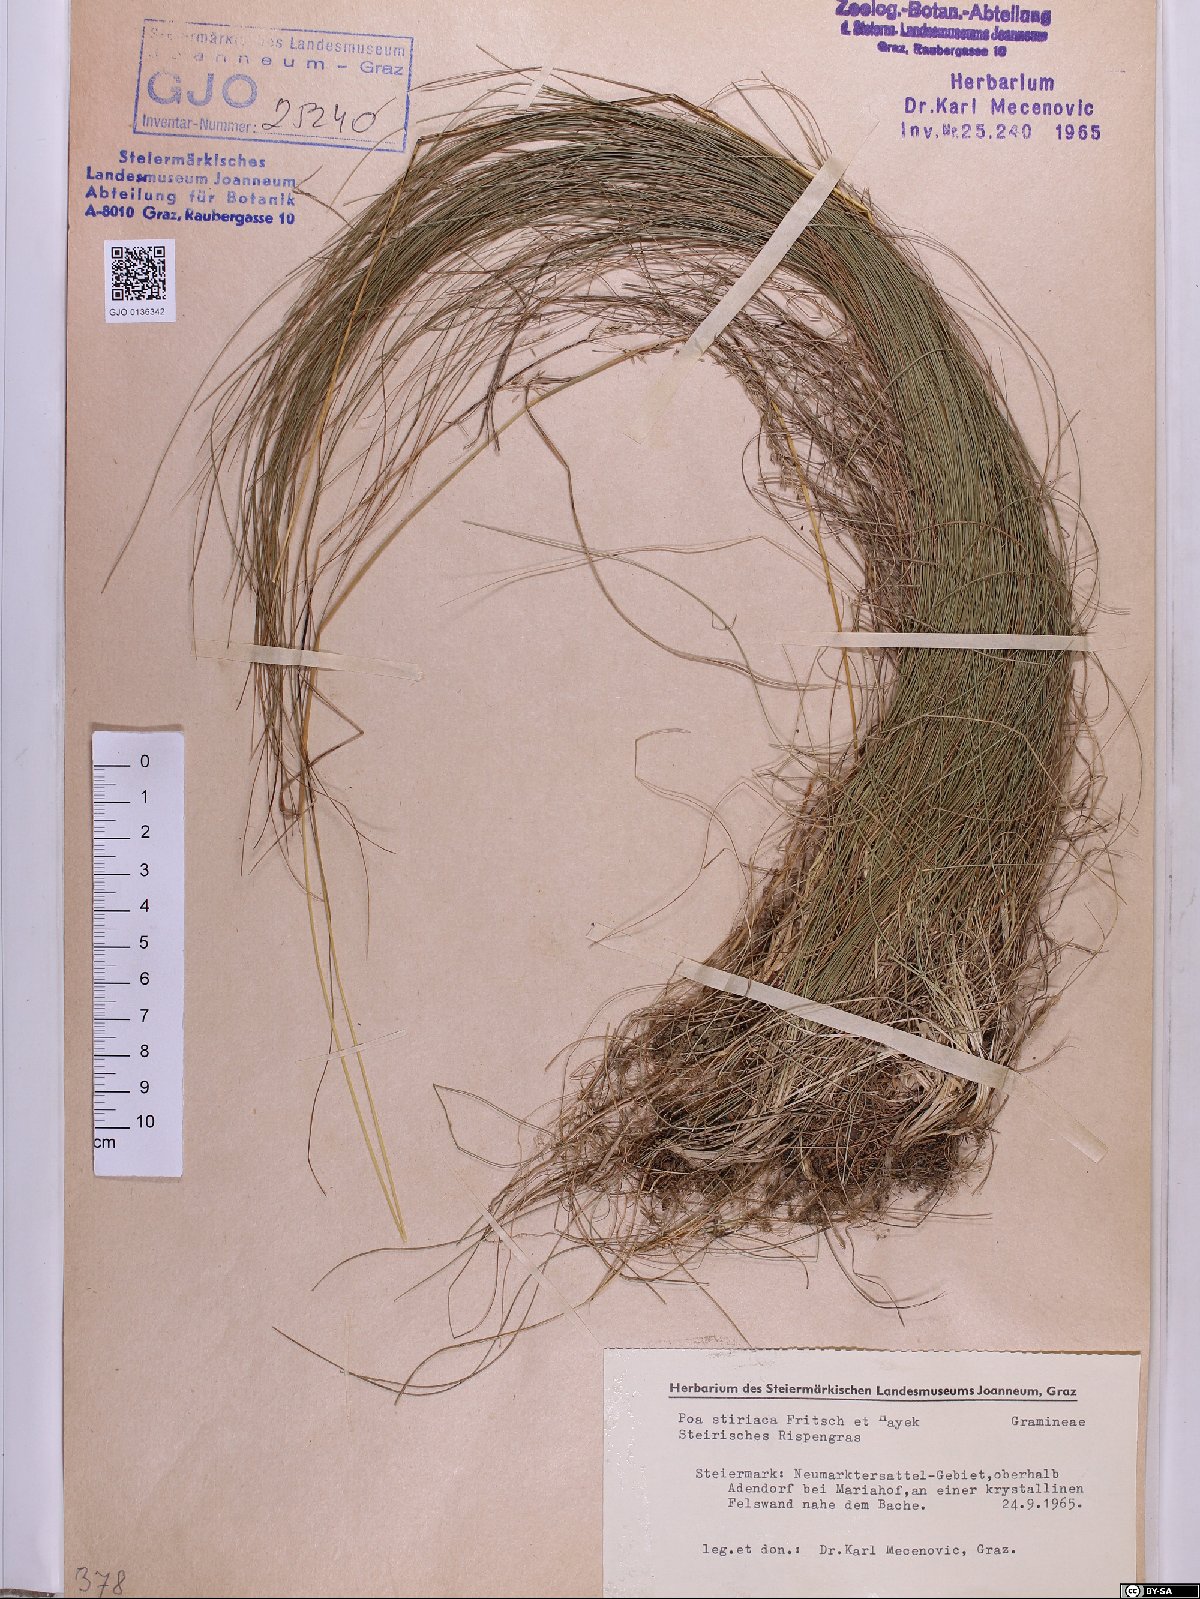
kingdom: Plantae
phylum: Tracheophyta
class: Liliopsida
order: Poales
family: Poaceae
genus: Poa
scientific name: Poa stiriaca
